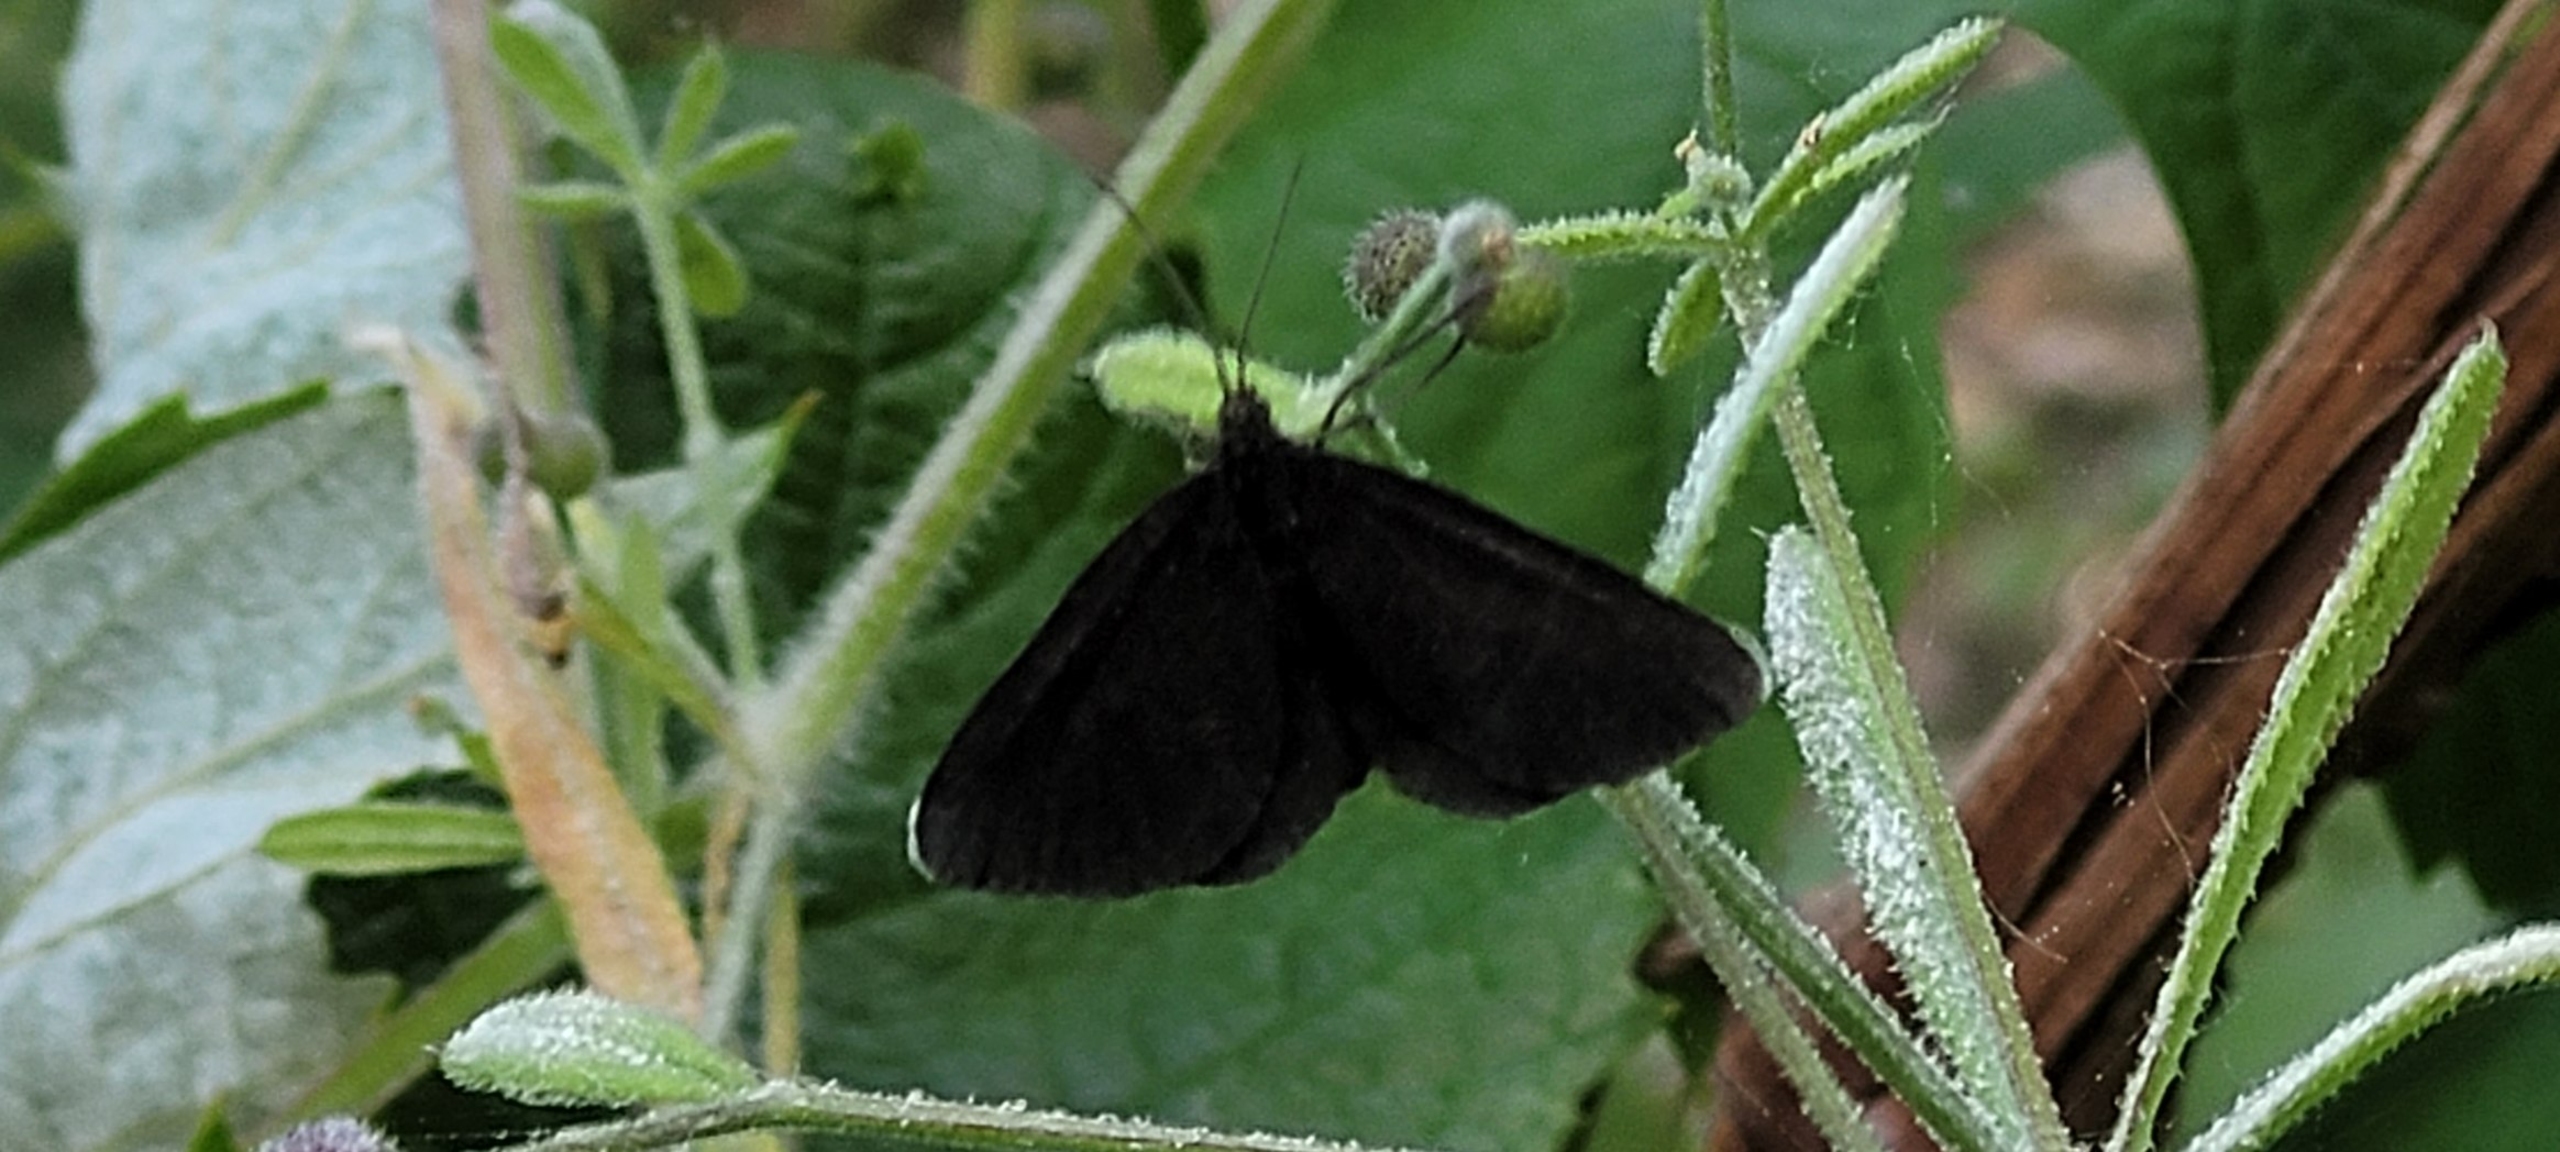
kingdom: Animalia
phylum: Arthropoda
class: Insecta
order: Lepidoptera
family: Geometridae
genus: Odezia
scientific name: Odezia atrata
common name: Sort måler
